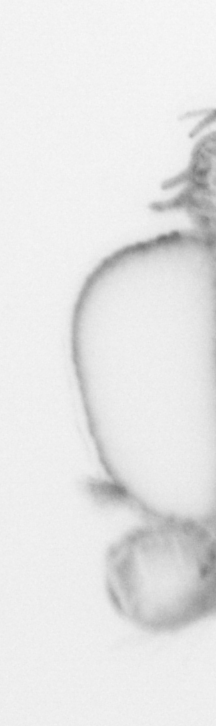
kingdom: Animalia
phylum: Annelida
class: Polychaeta
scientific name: Polychaeta
